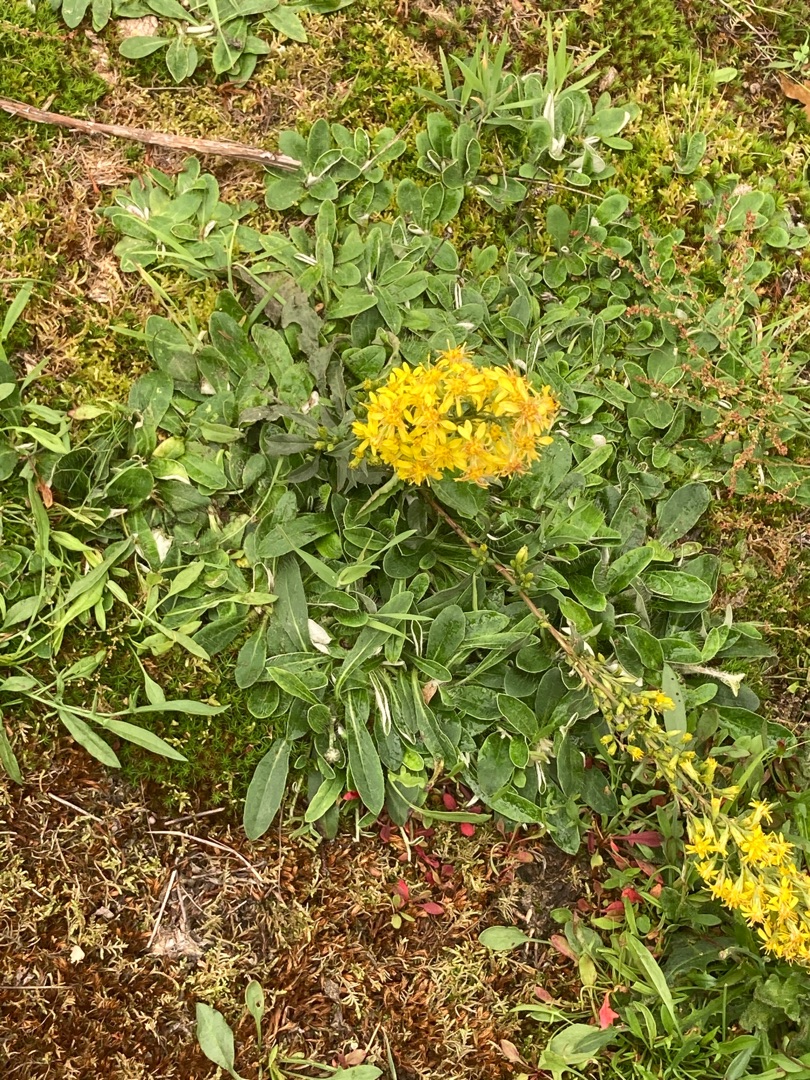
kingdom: Plantae
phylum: Tracheophyta
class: Magnoliopsida
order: Asterales
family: Asteraceae
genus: Solidago
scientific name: Solidago virgaurea
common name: Almindelig gyldenris
